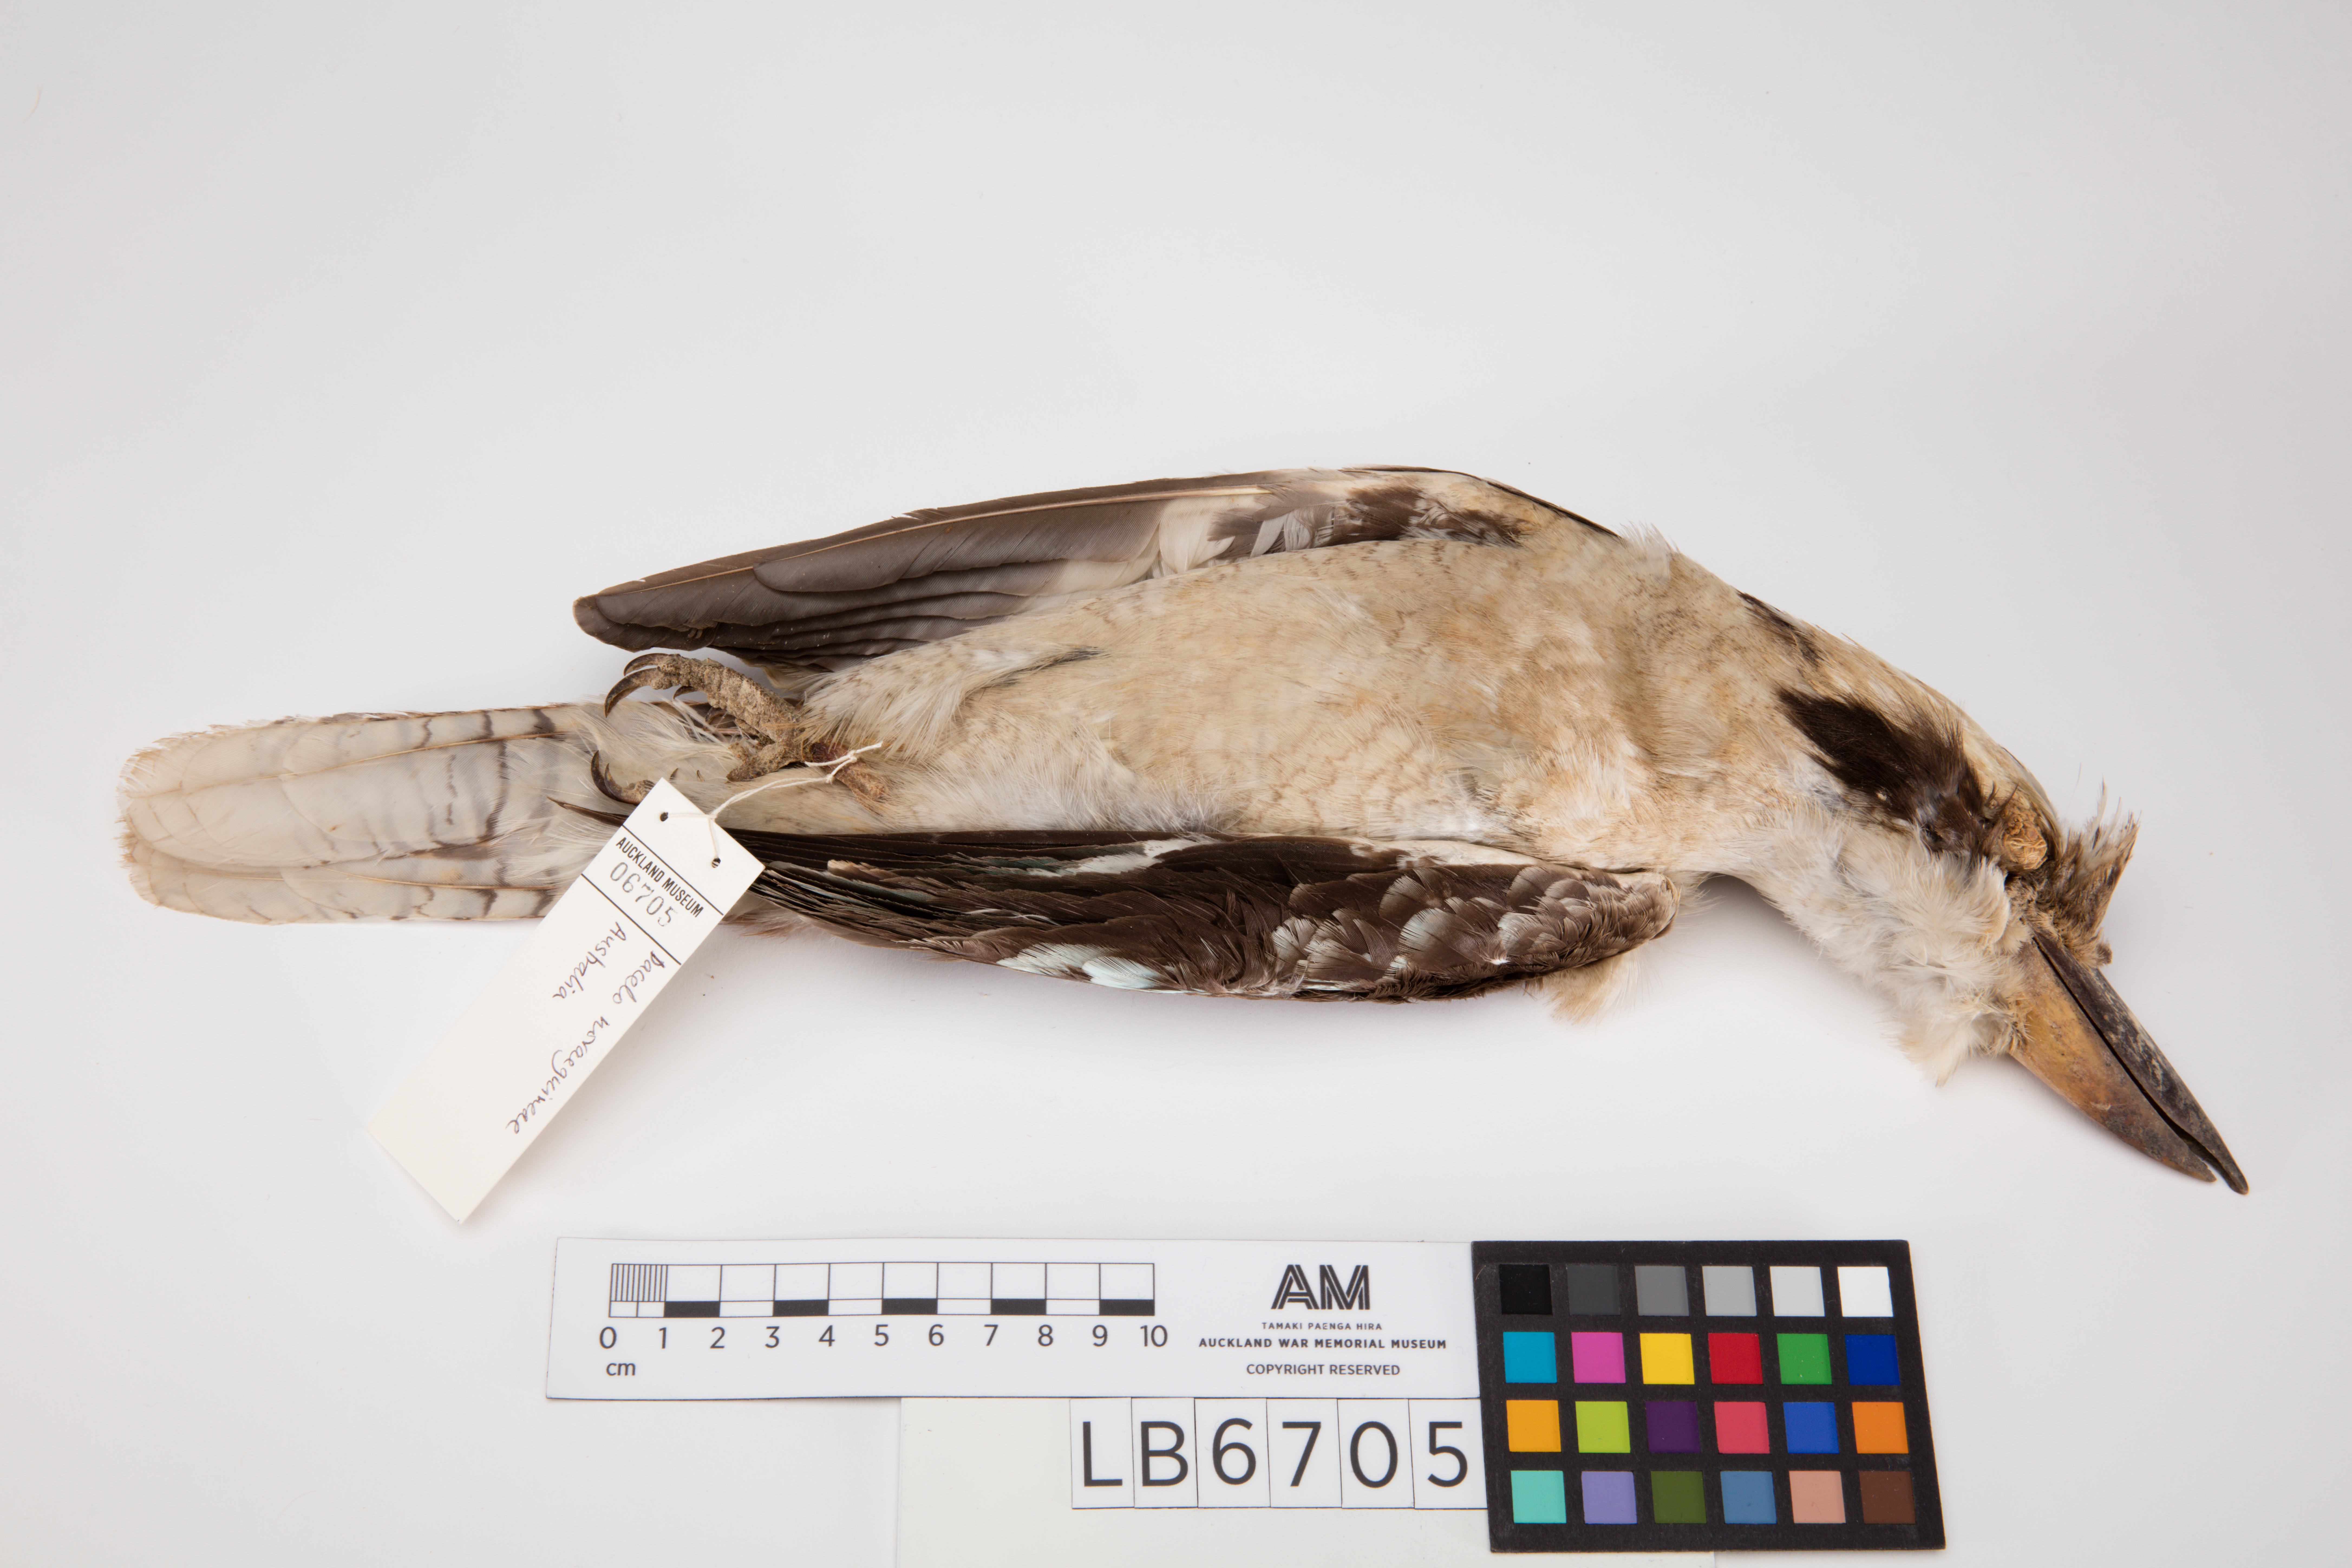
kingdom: Animalia
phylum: Chordata
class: Aves
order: Coraciiformes
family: Alcedinidae
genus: Dacelo
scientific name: Dacelo novaeguineae
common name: Laughing kookaburra
